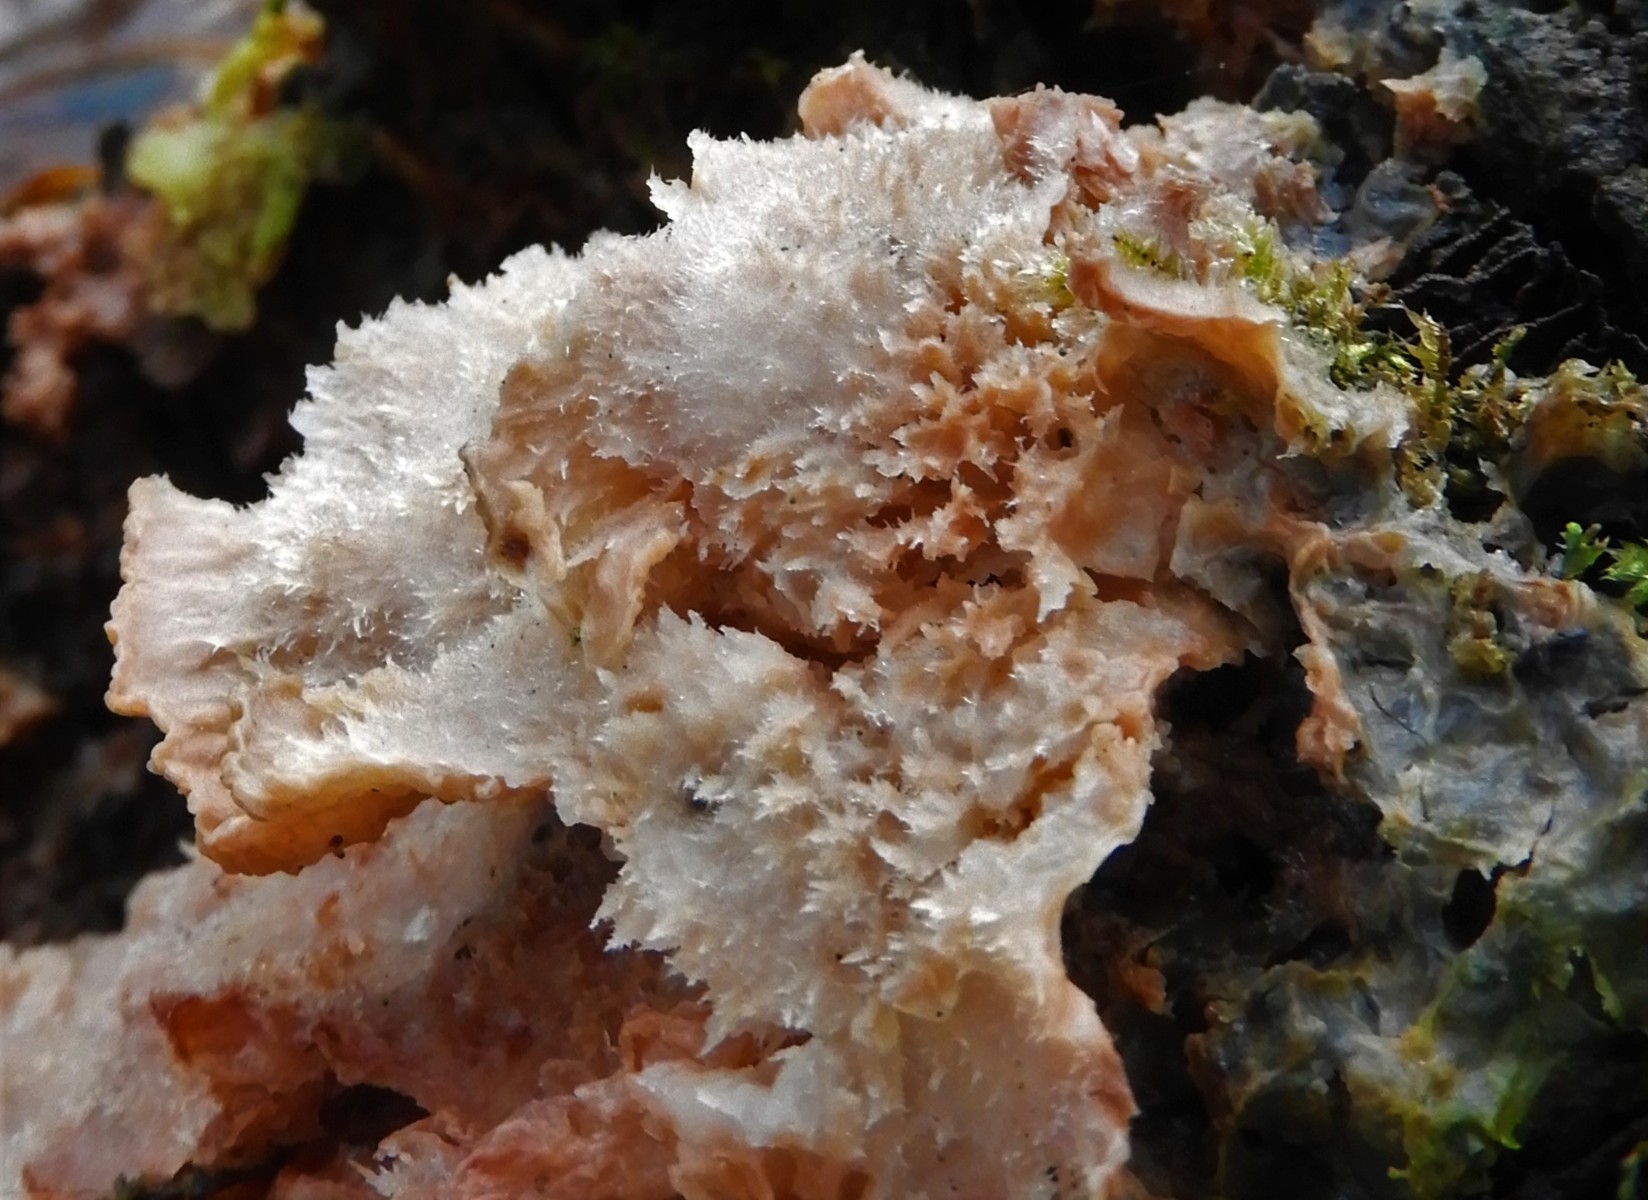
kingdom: Fungi
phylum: Basidiomycota
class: Agaricomycetes
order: Polyporales
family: Meruliaceae
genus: Phlebia
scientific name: Phlebia tremellosa
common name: bævrende åresvamp
